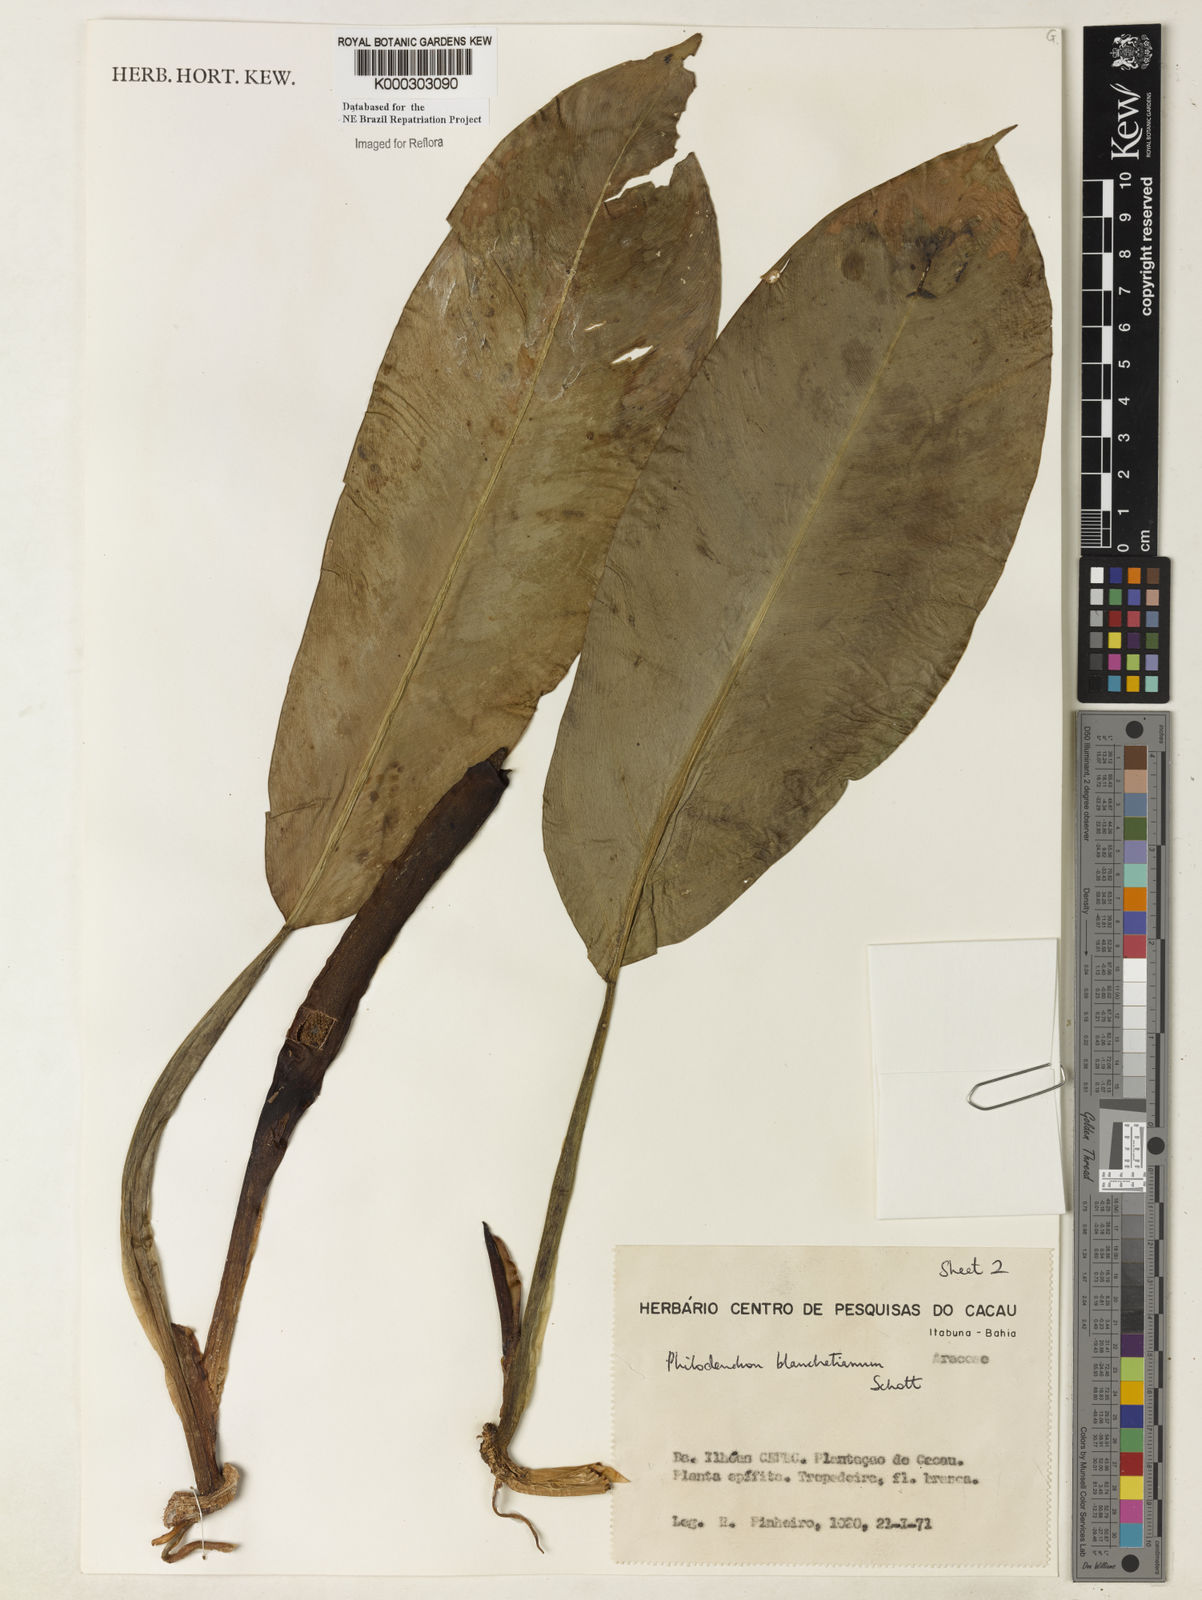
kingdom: Plantae
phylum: Tracheophyta
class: Liliopsida
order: Alismatales
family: Araceae
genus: Philodendron
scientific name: Philodendron blanchetianum
